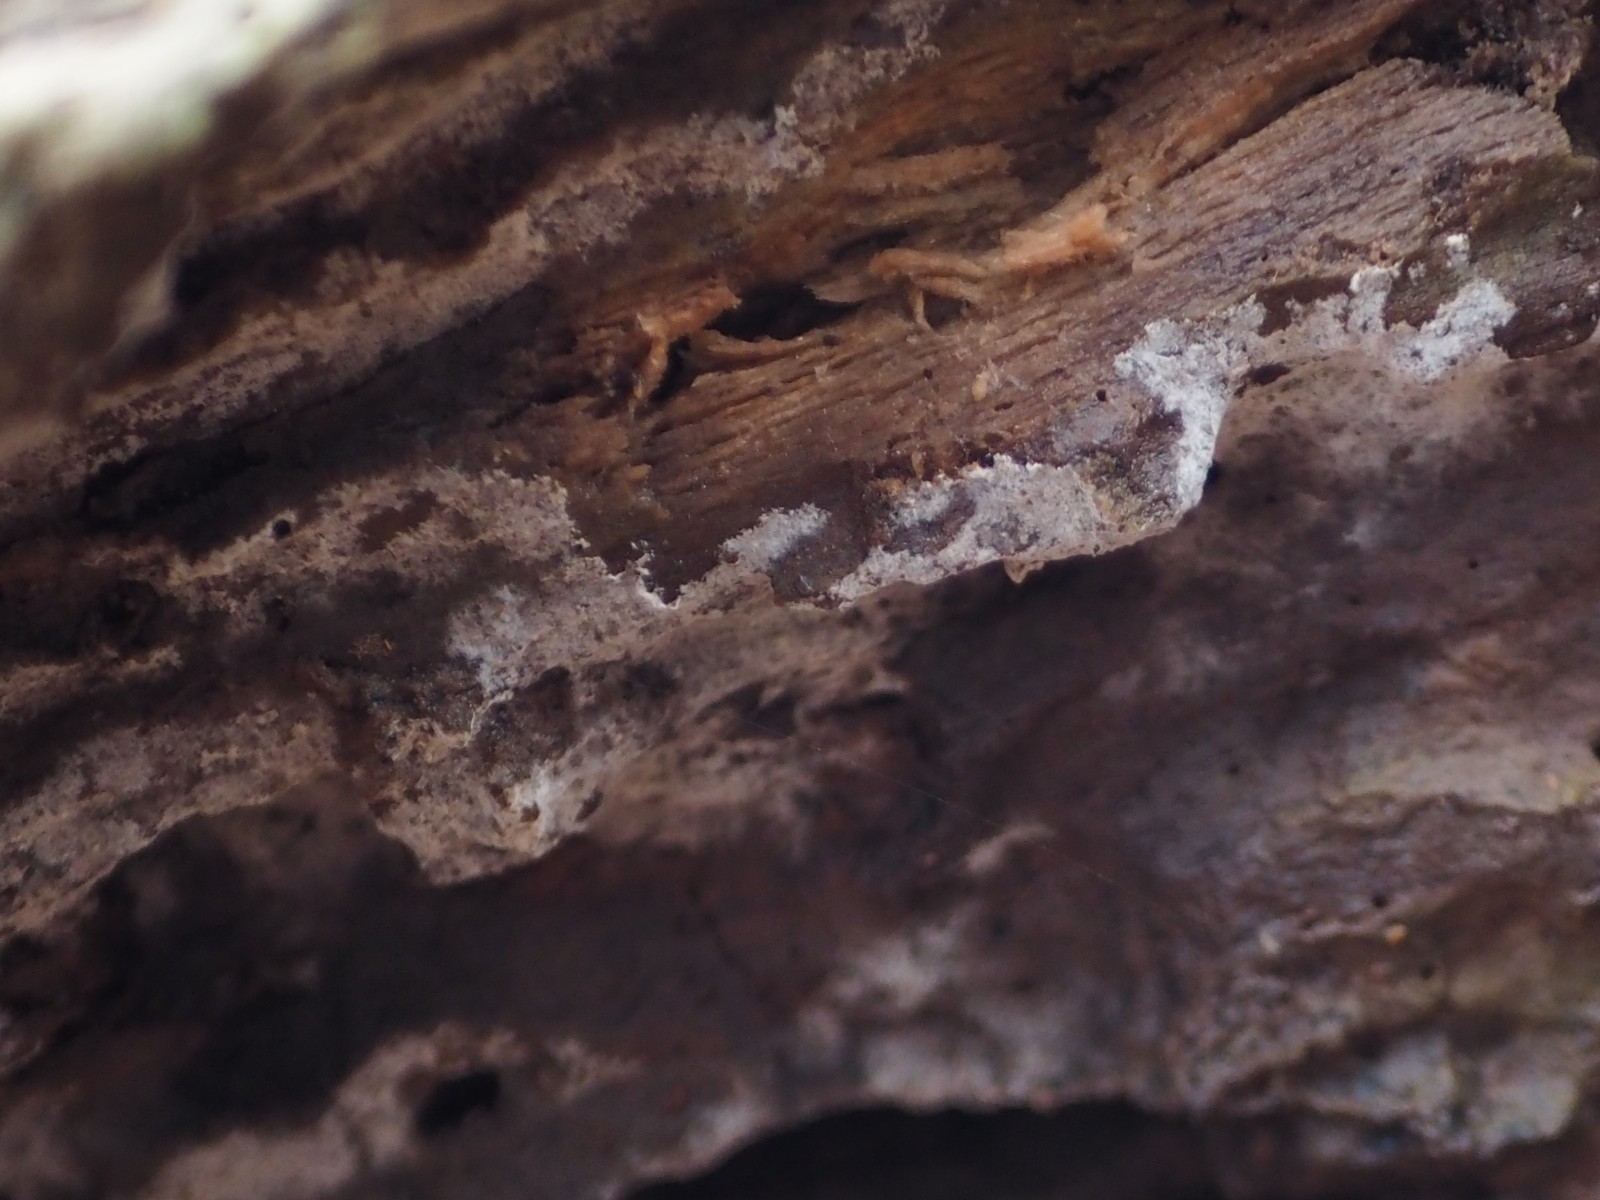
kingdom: Fungi
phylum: Basidiomycota
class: Agaricomycetes
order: Cantharellales
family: Botryobasidiaceae
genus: Botryobasidium
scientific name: Botryobasidium vagum
